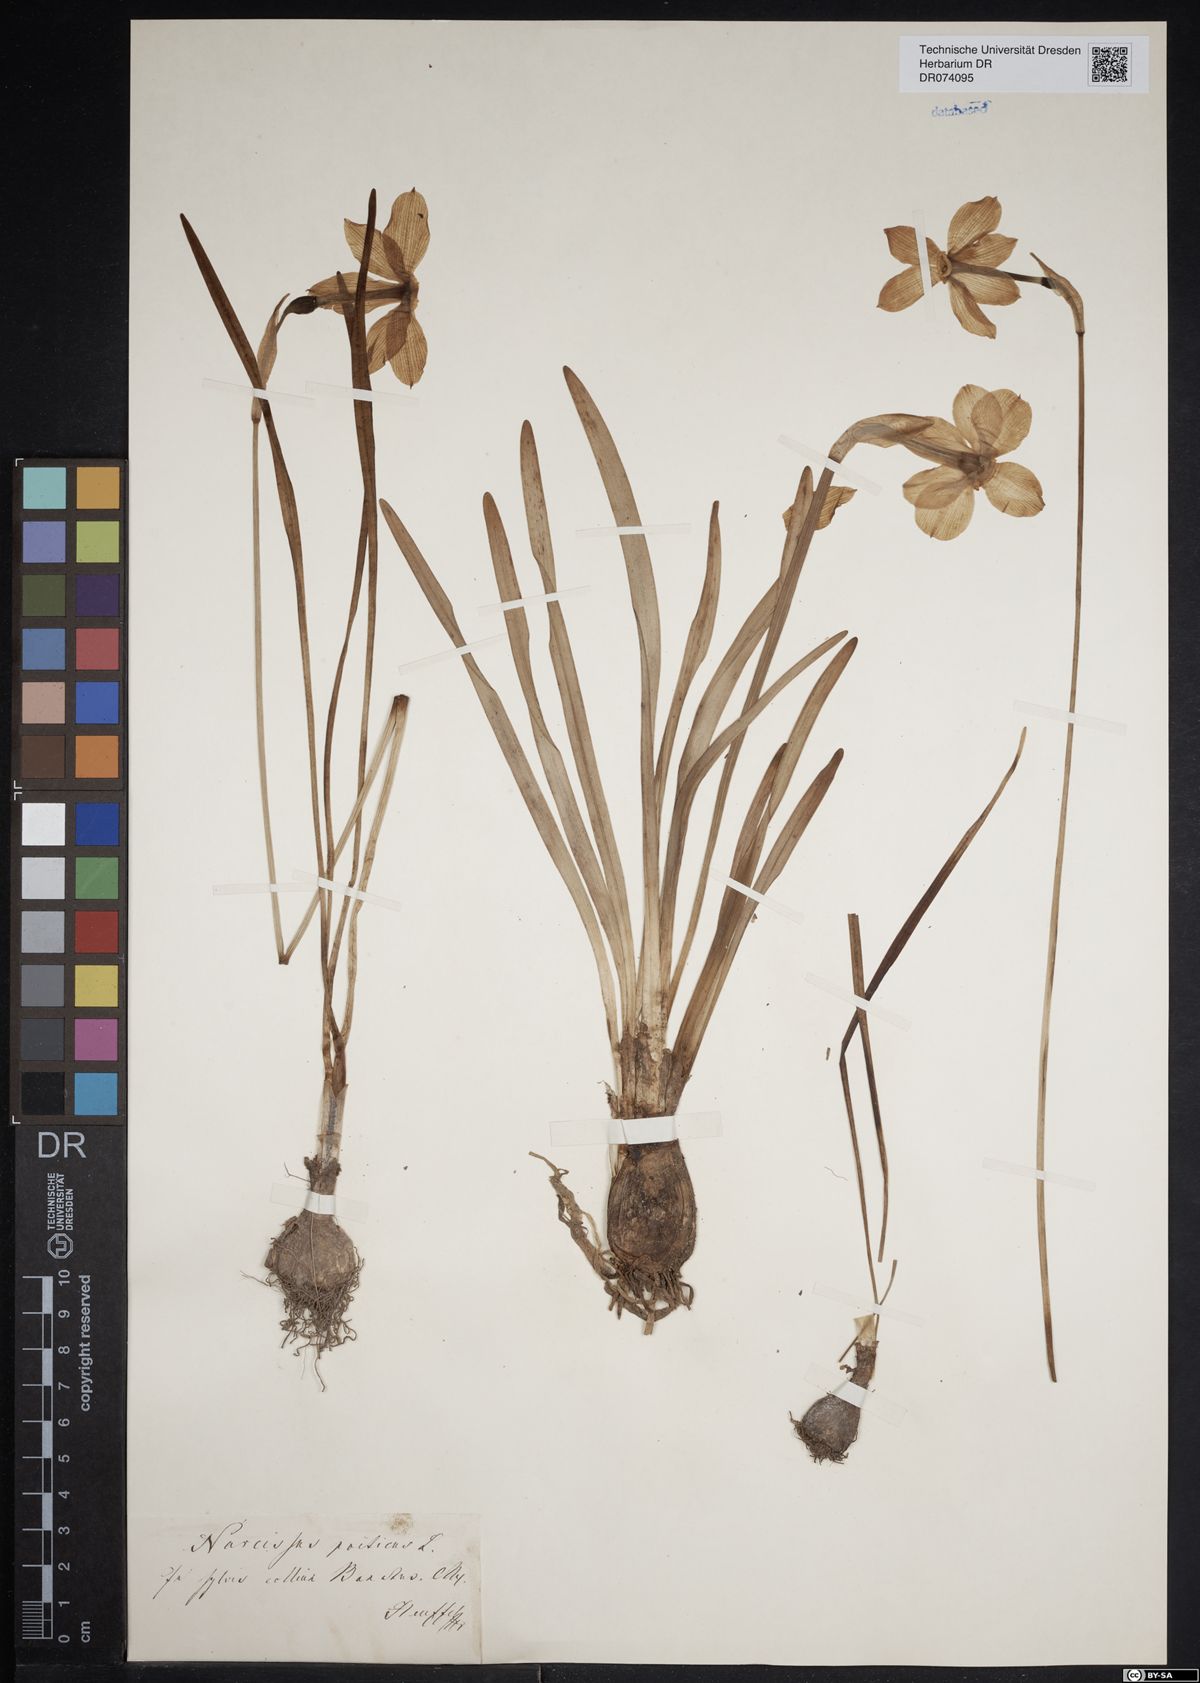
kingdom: Plantae
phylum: Tracheophyta
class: Liliopsida
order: Asparagales
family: Amaryllidaceae
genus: Narcissus
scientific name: Narcissus poeticus
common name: Pheasant's-eye daffodil
